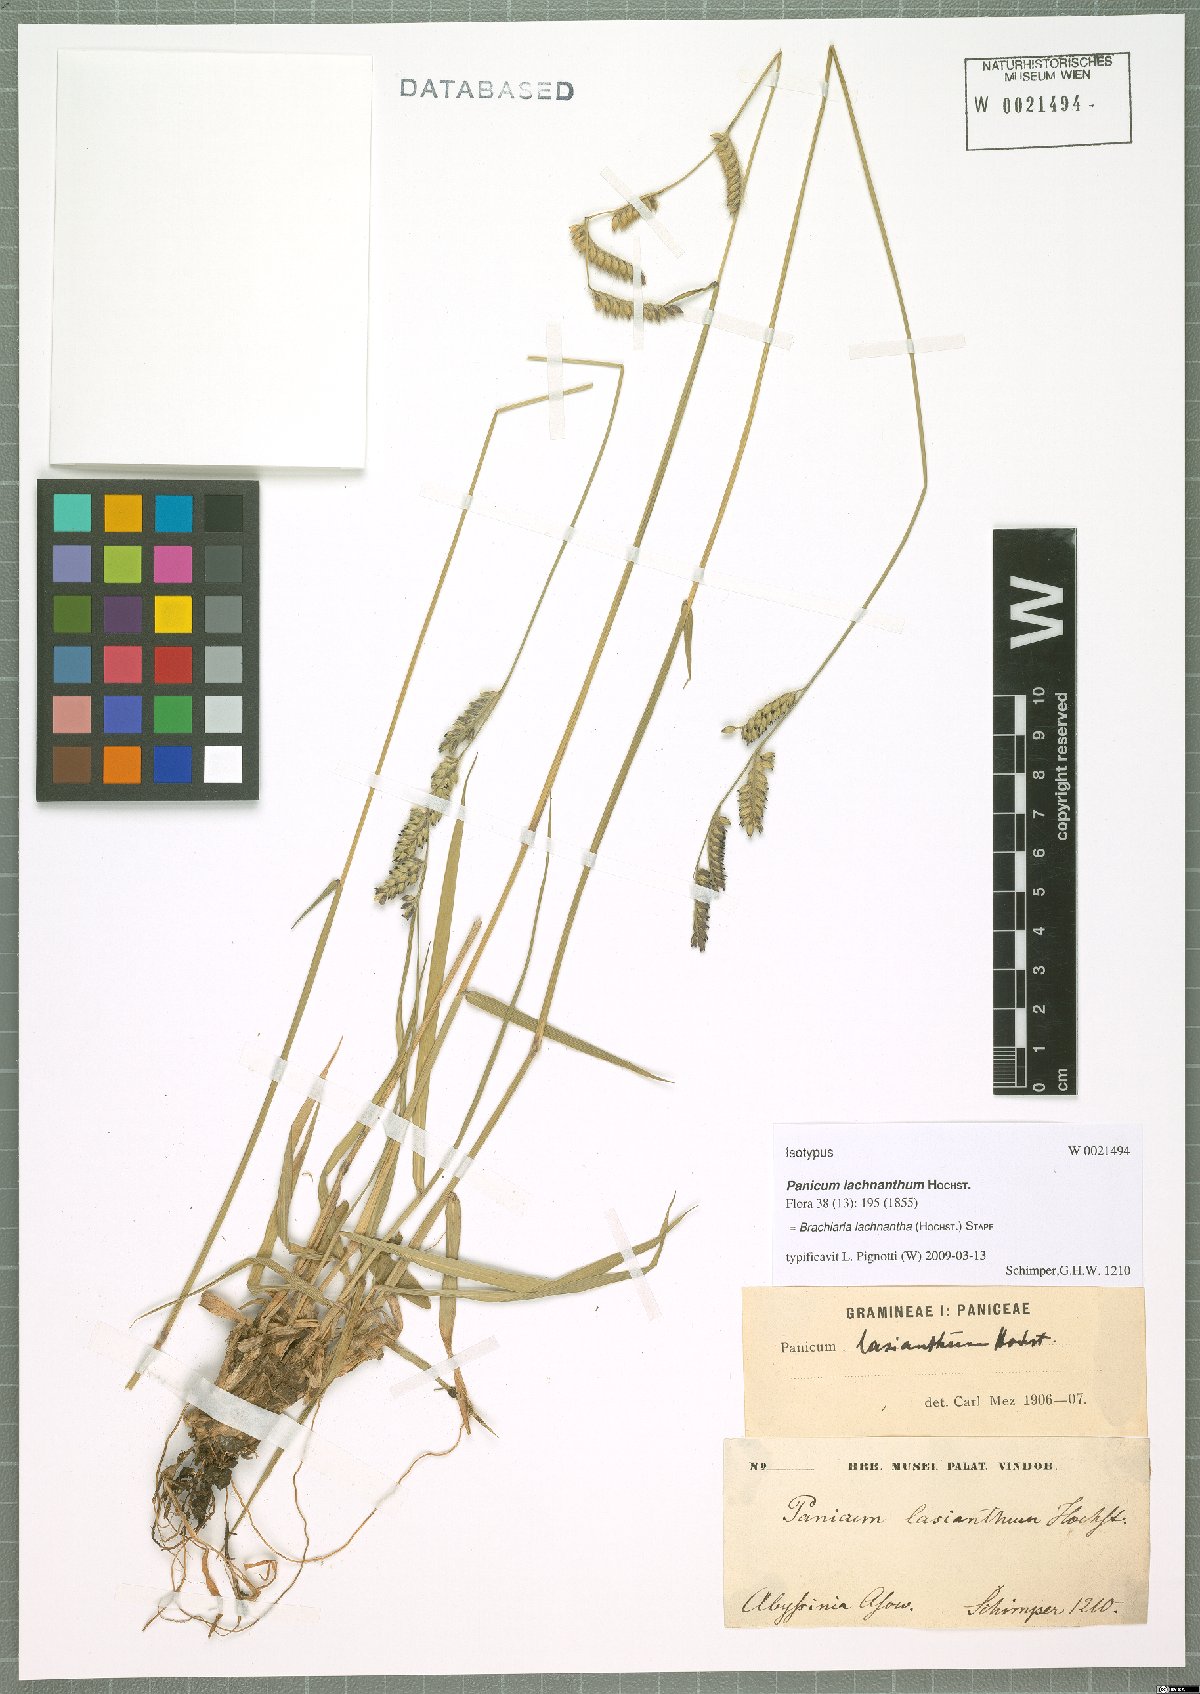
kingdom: Plantae
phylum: Tracheophyta
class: Liliopsida
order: Poales
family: Poaceae
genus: Urochloa
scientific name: Urochloa lachnantha
